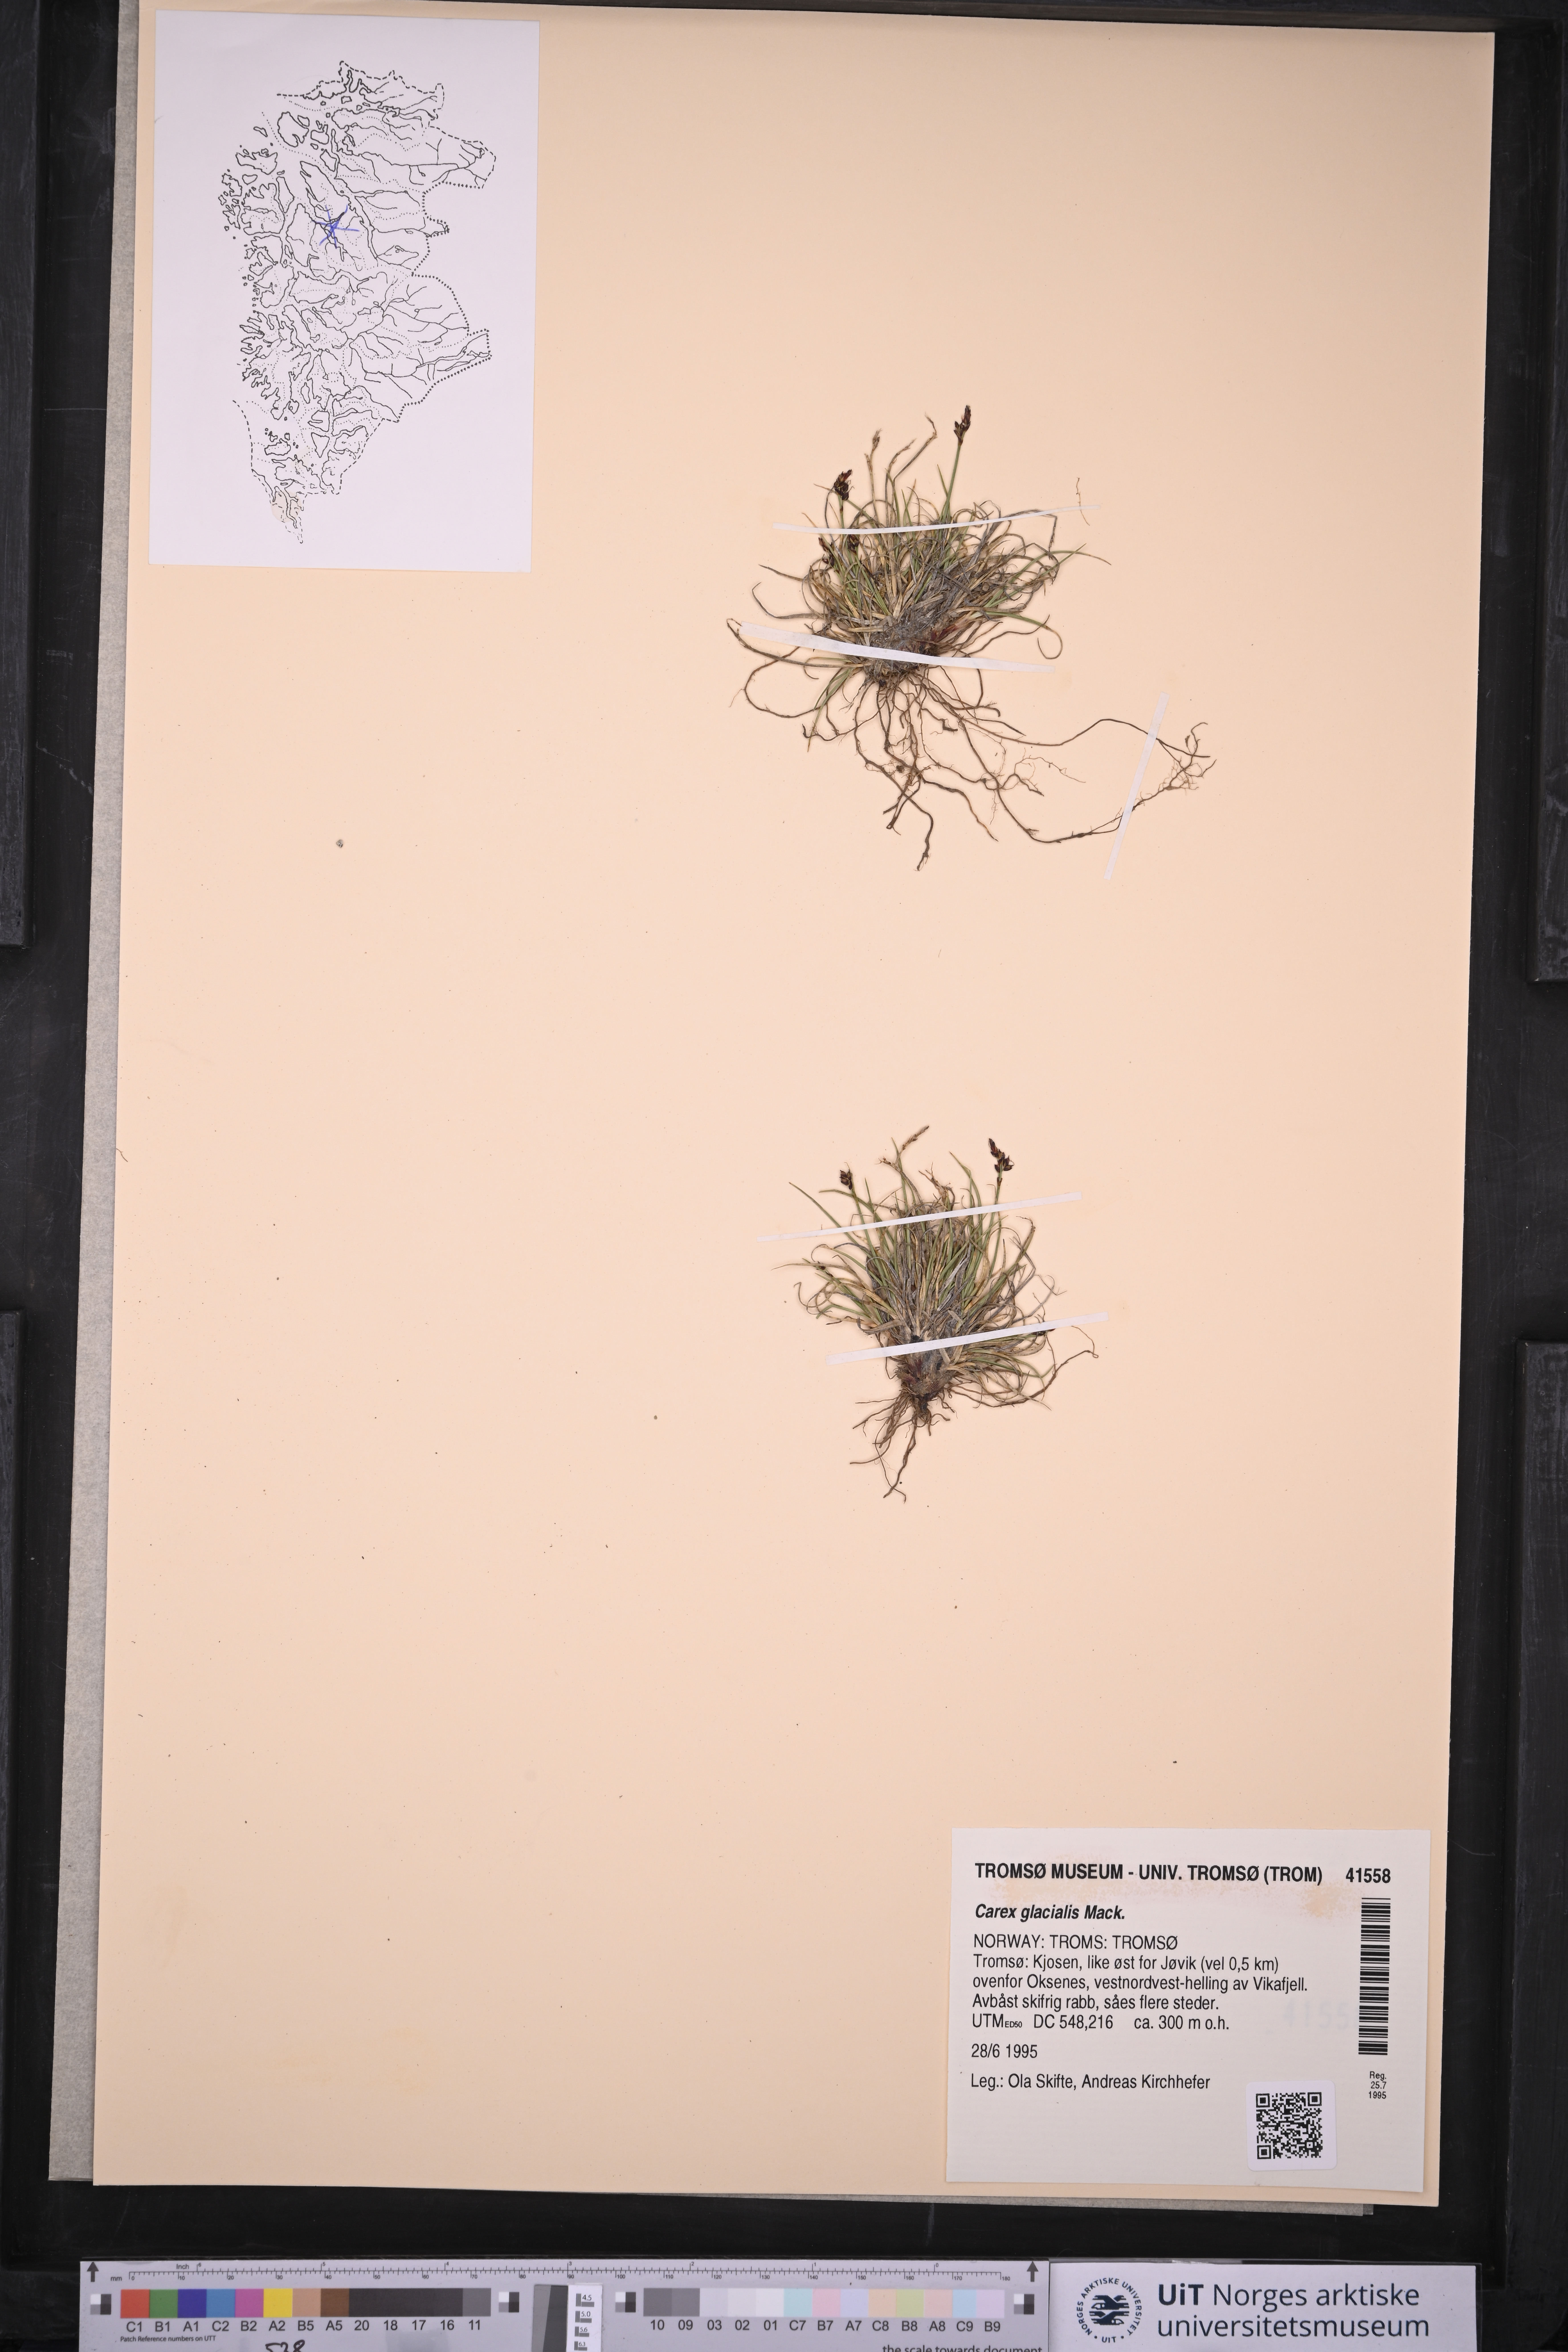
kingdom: Plantae
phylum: Tracheophyta
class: Liliopsida
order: Poales
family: Cyperaceae
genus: Carex
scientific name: Carex glacialis
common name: Newfoundland sedge
